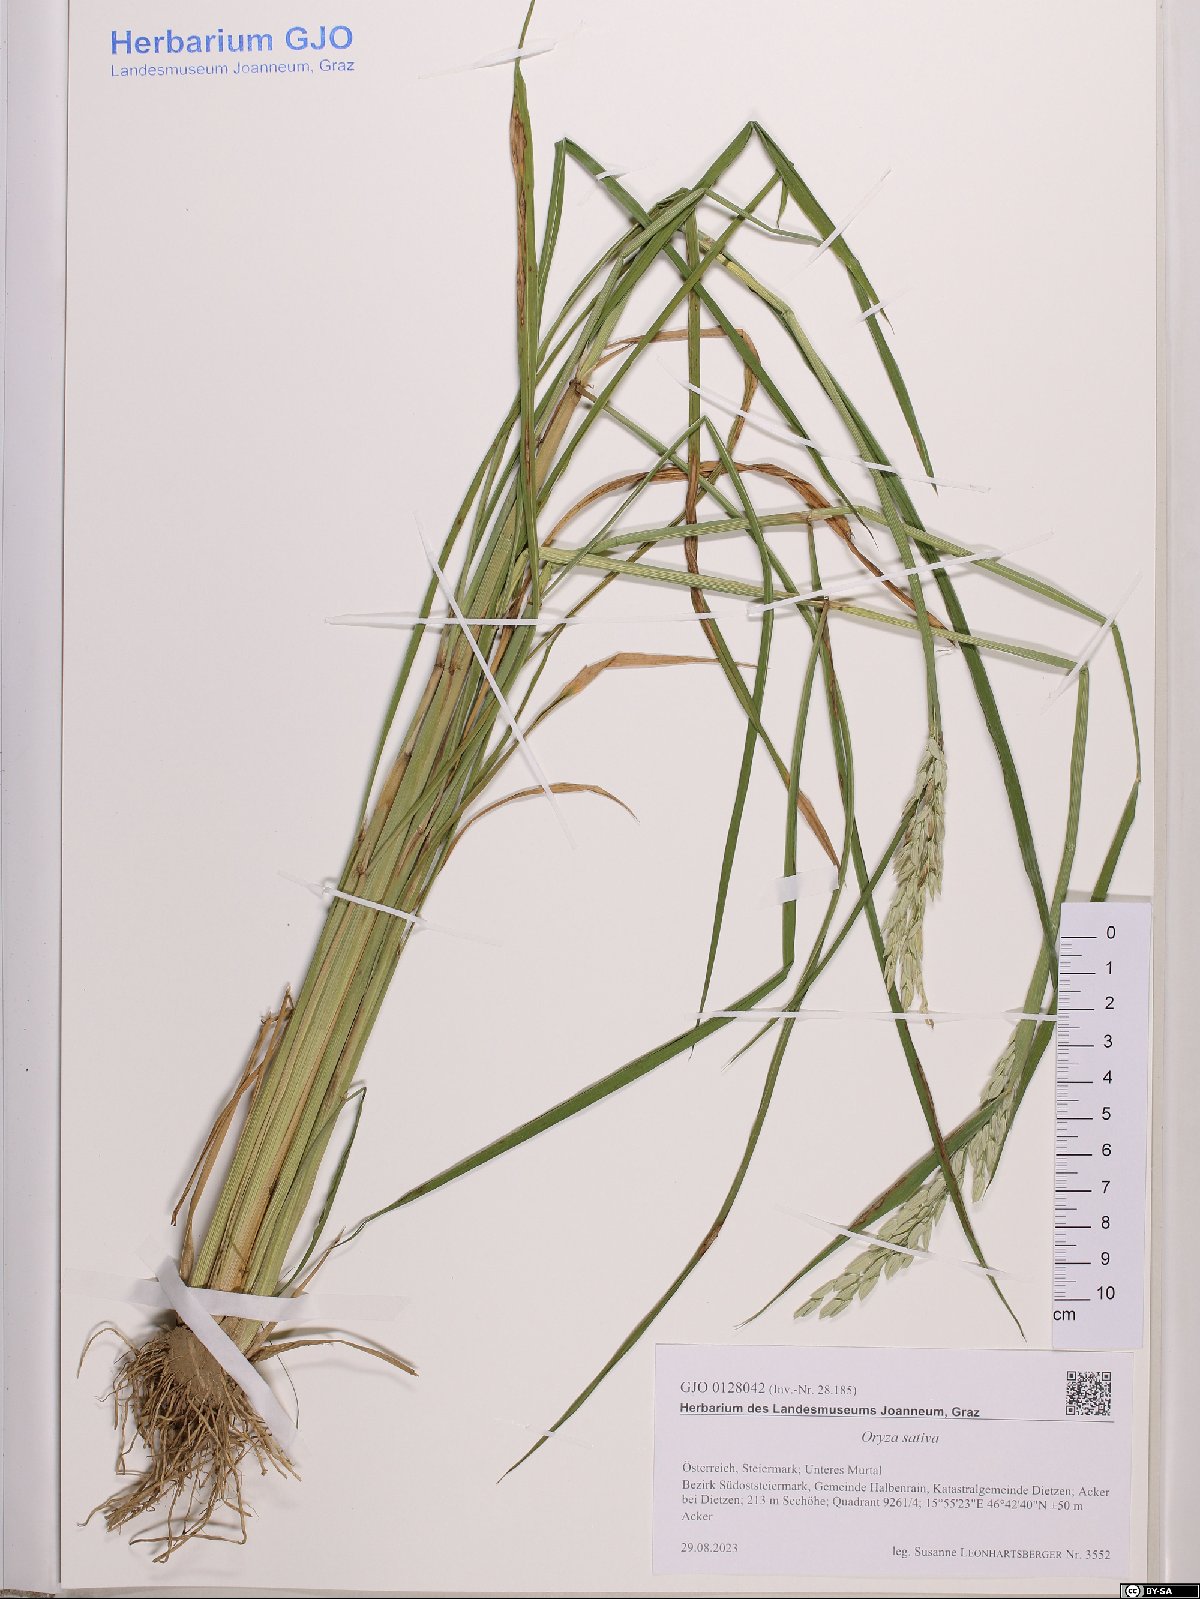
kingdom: Plantae
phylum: Tracheophyta
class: Liliopsida
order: Poales
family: Poaceae
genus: Oryza
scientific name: Oryza sativa
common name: Rice
